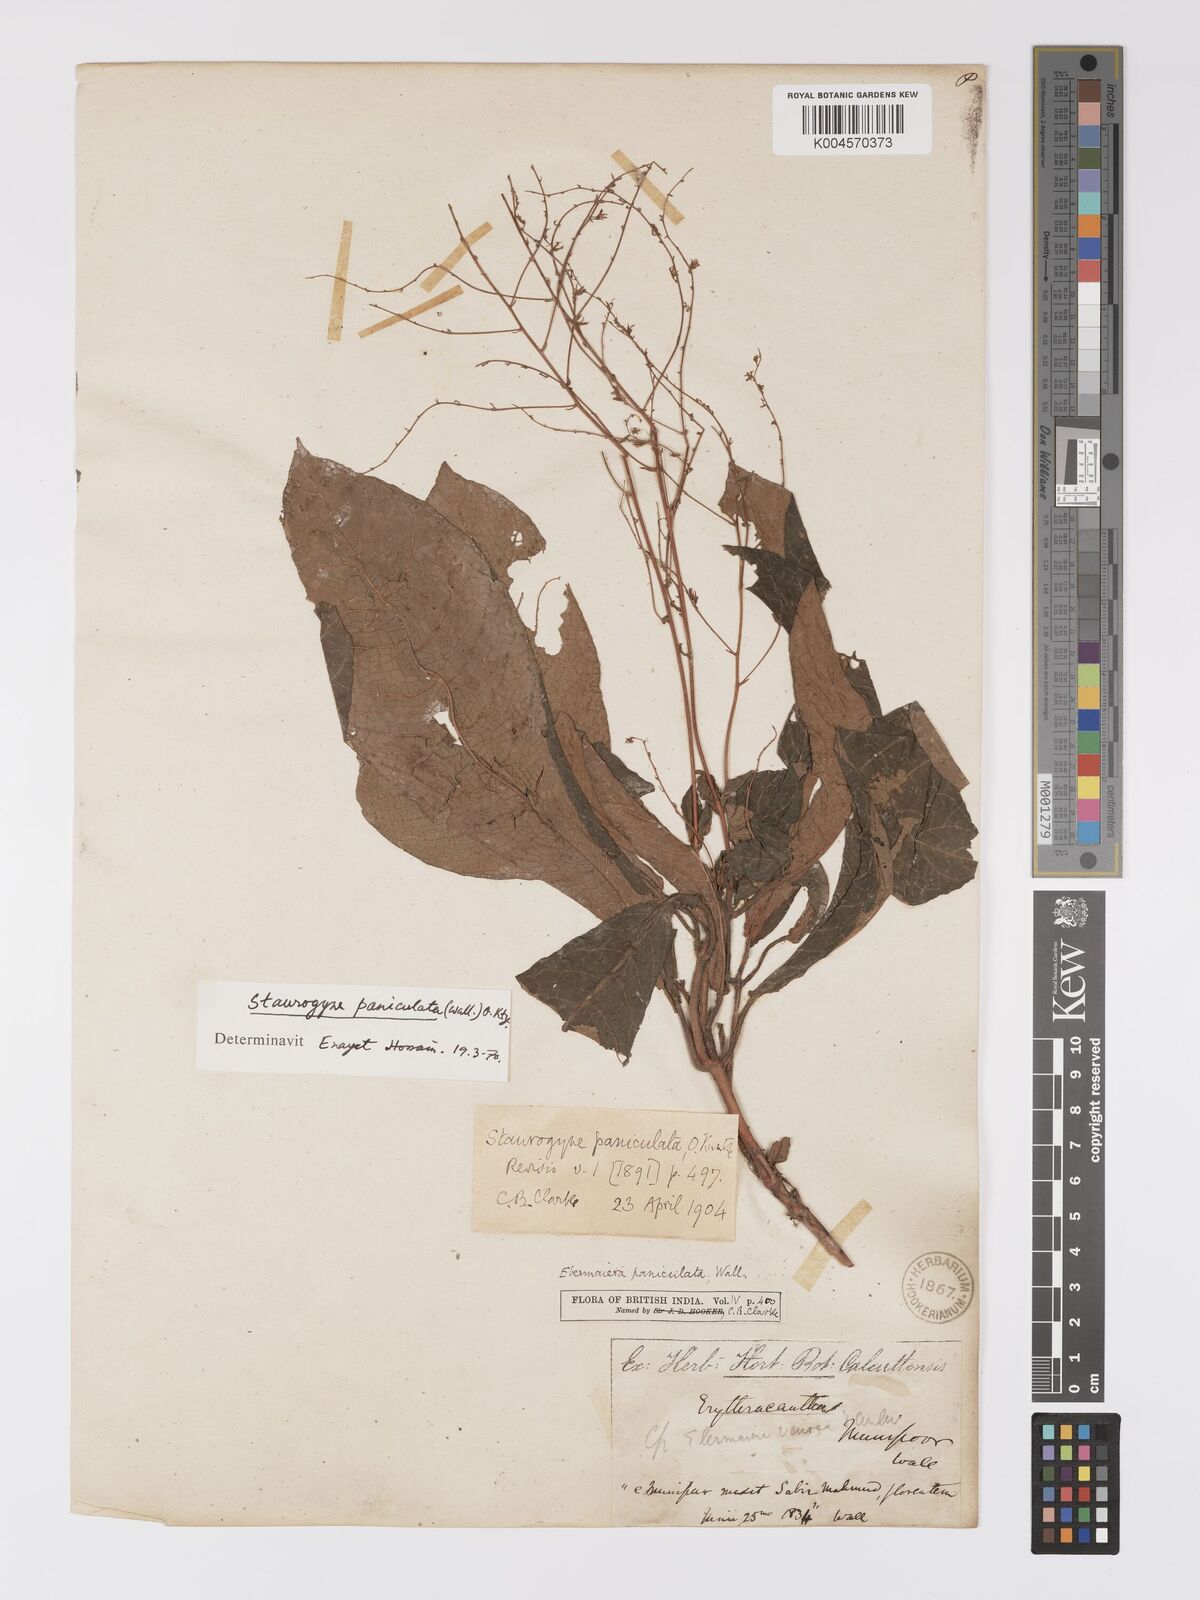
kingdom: Plantae
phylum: Tracheophyta
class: Magnoliopsida
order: Lamiales
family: Acanthaceae
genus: Staurogyne
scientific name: Staurogyne paniculata
